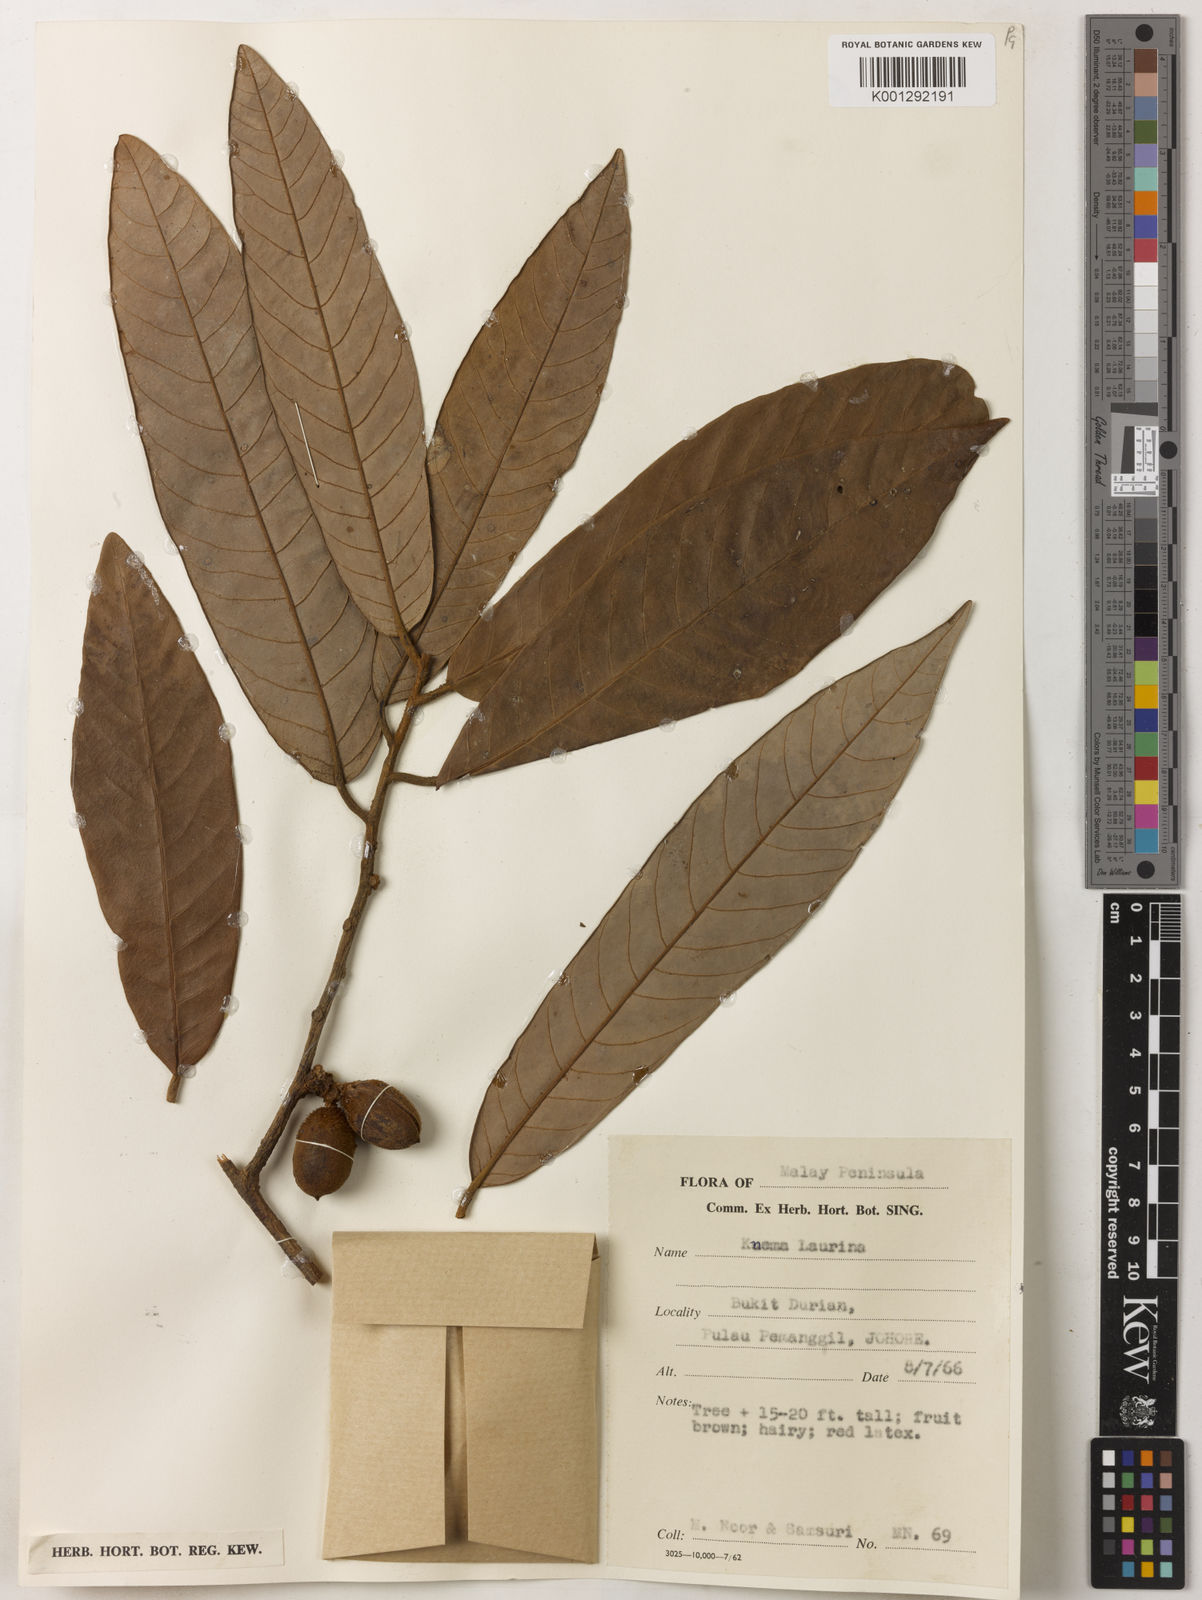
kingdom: Plantae
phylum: Tracheophyta
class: Magnoliopsida
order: Magnoliales
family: Myristicaceae
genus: Knema
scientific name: Knema laurina
